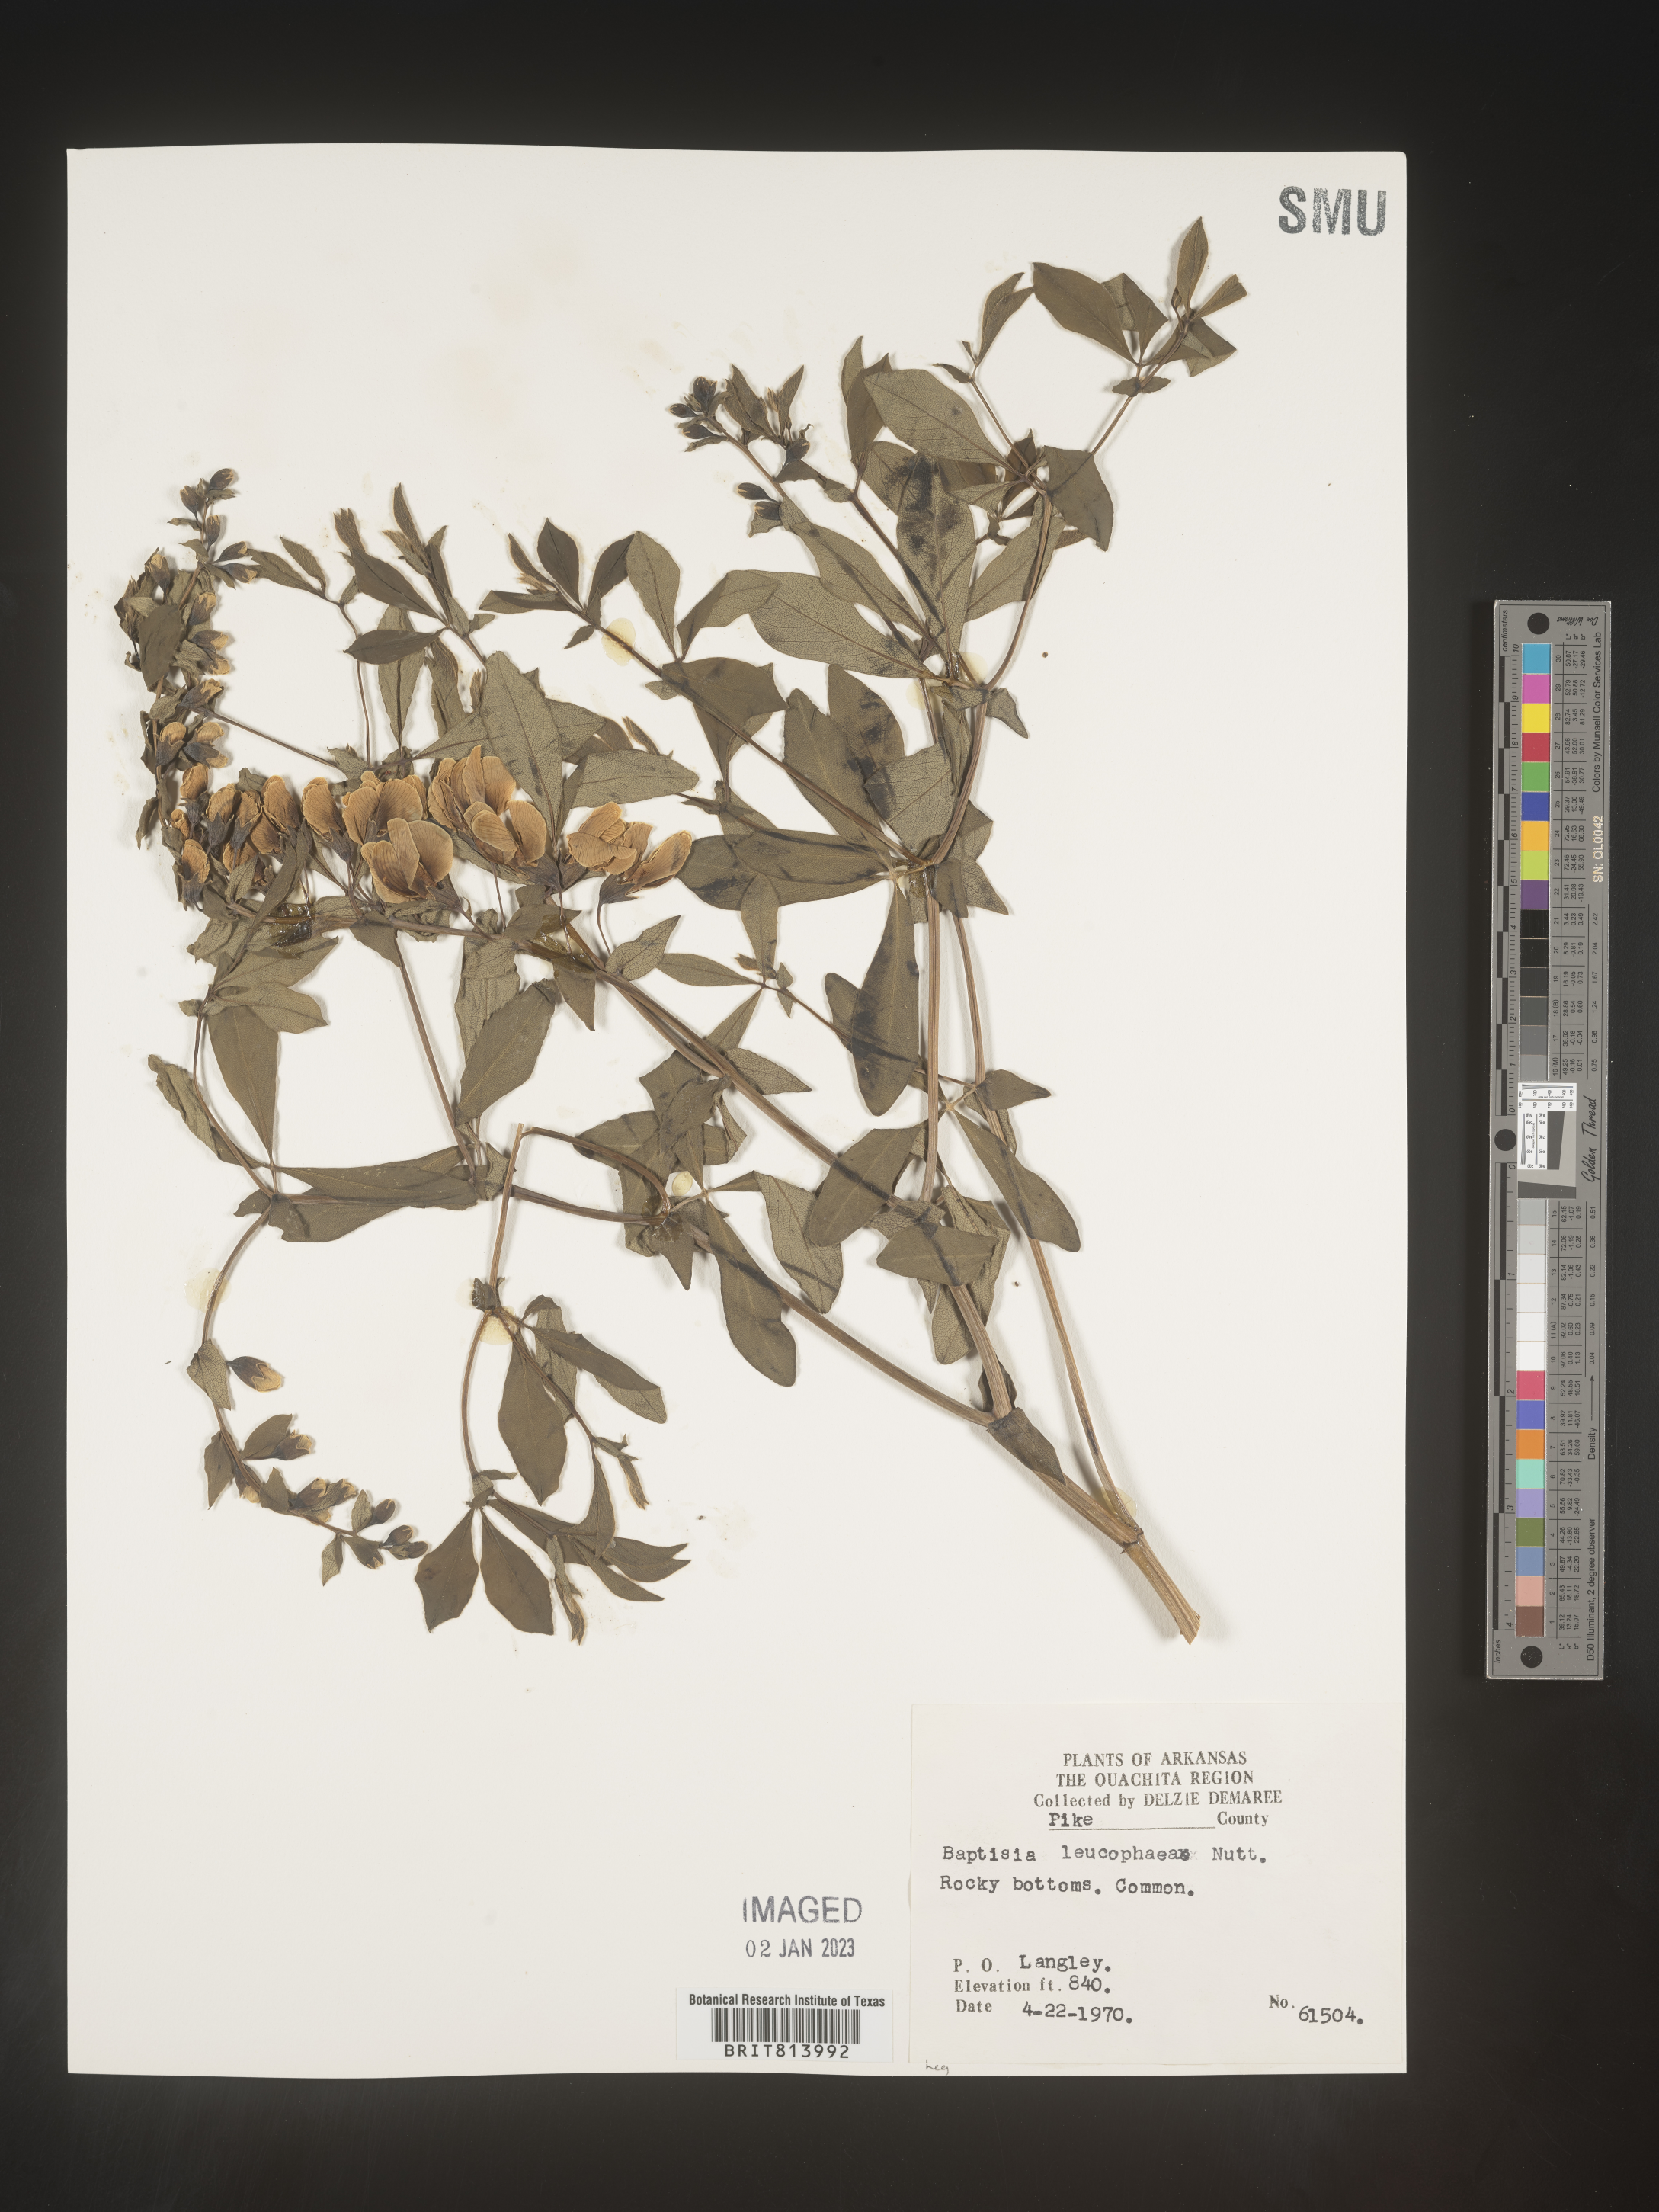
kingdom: Plantae
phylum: Tracheophyta
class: Magnoliopsida
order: Fabales
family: Fabaceae
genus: Baptisia
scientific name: Baptisia bracteata
